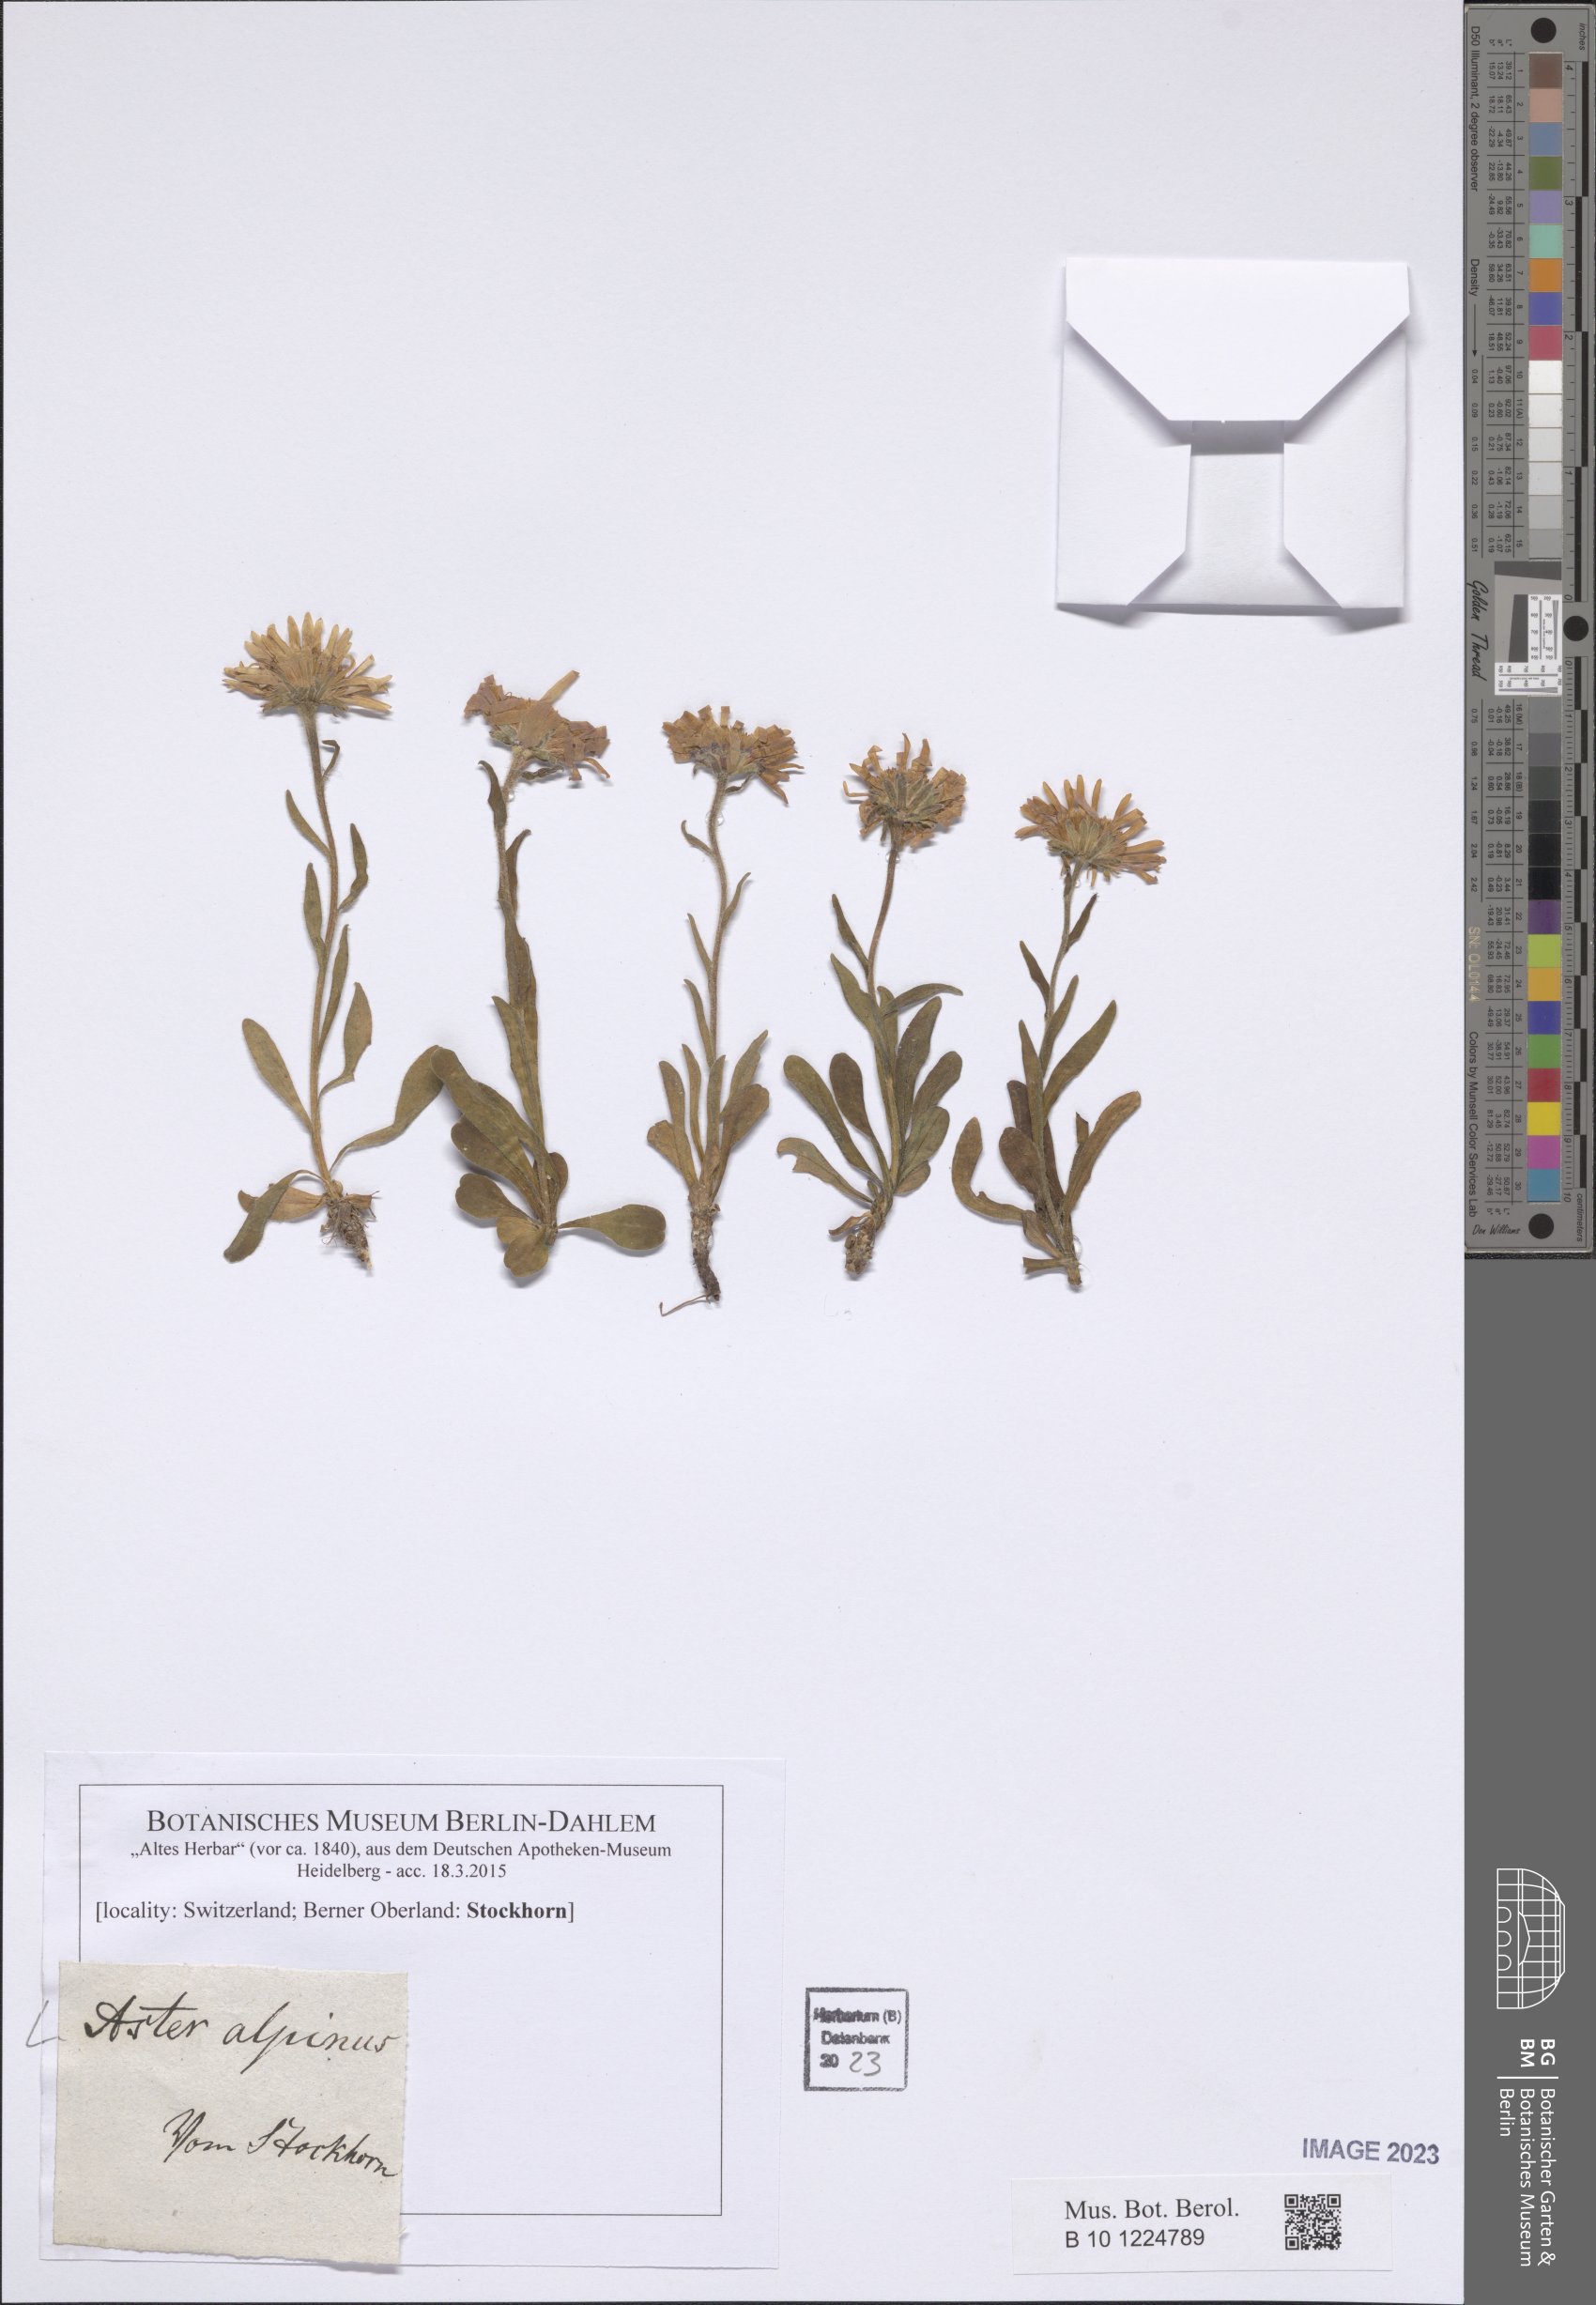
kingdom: Plantae
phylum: Tracheophyta
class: Magnoliopsida
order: Asterales
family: Asteraceae
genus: Aster
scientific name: Aster alpinus
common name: Alpine aster
